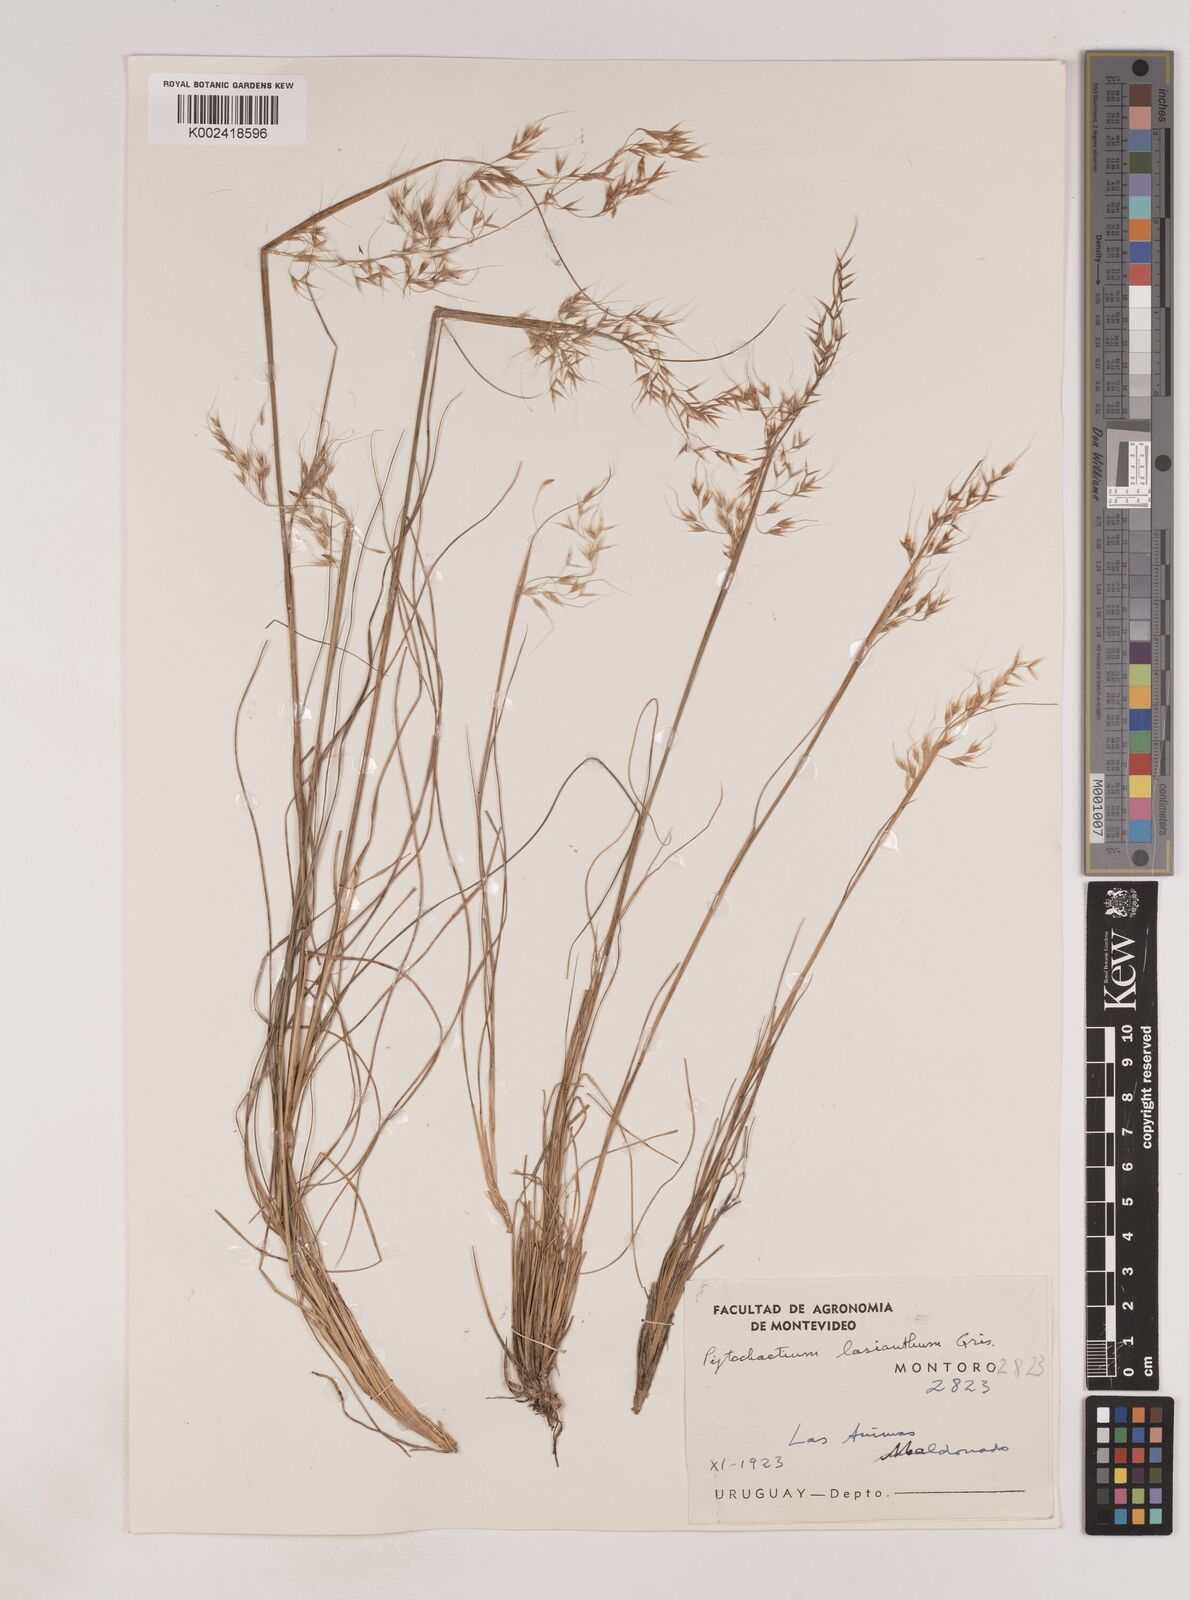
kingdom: Plantae
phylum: Tracheophyta
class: Liliopsida
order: Poales
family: Poaceae
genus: Piptochaetium
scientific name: Piptochaetium lasianthum
